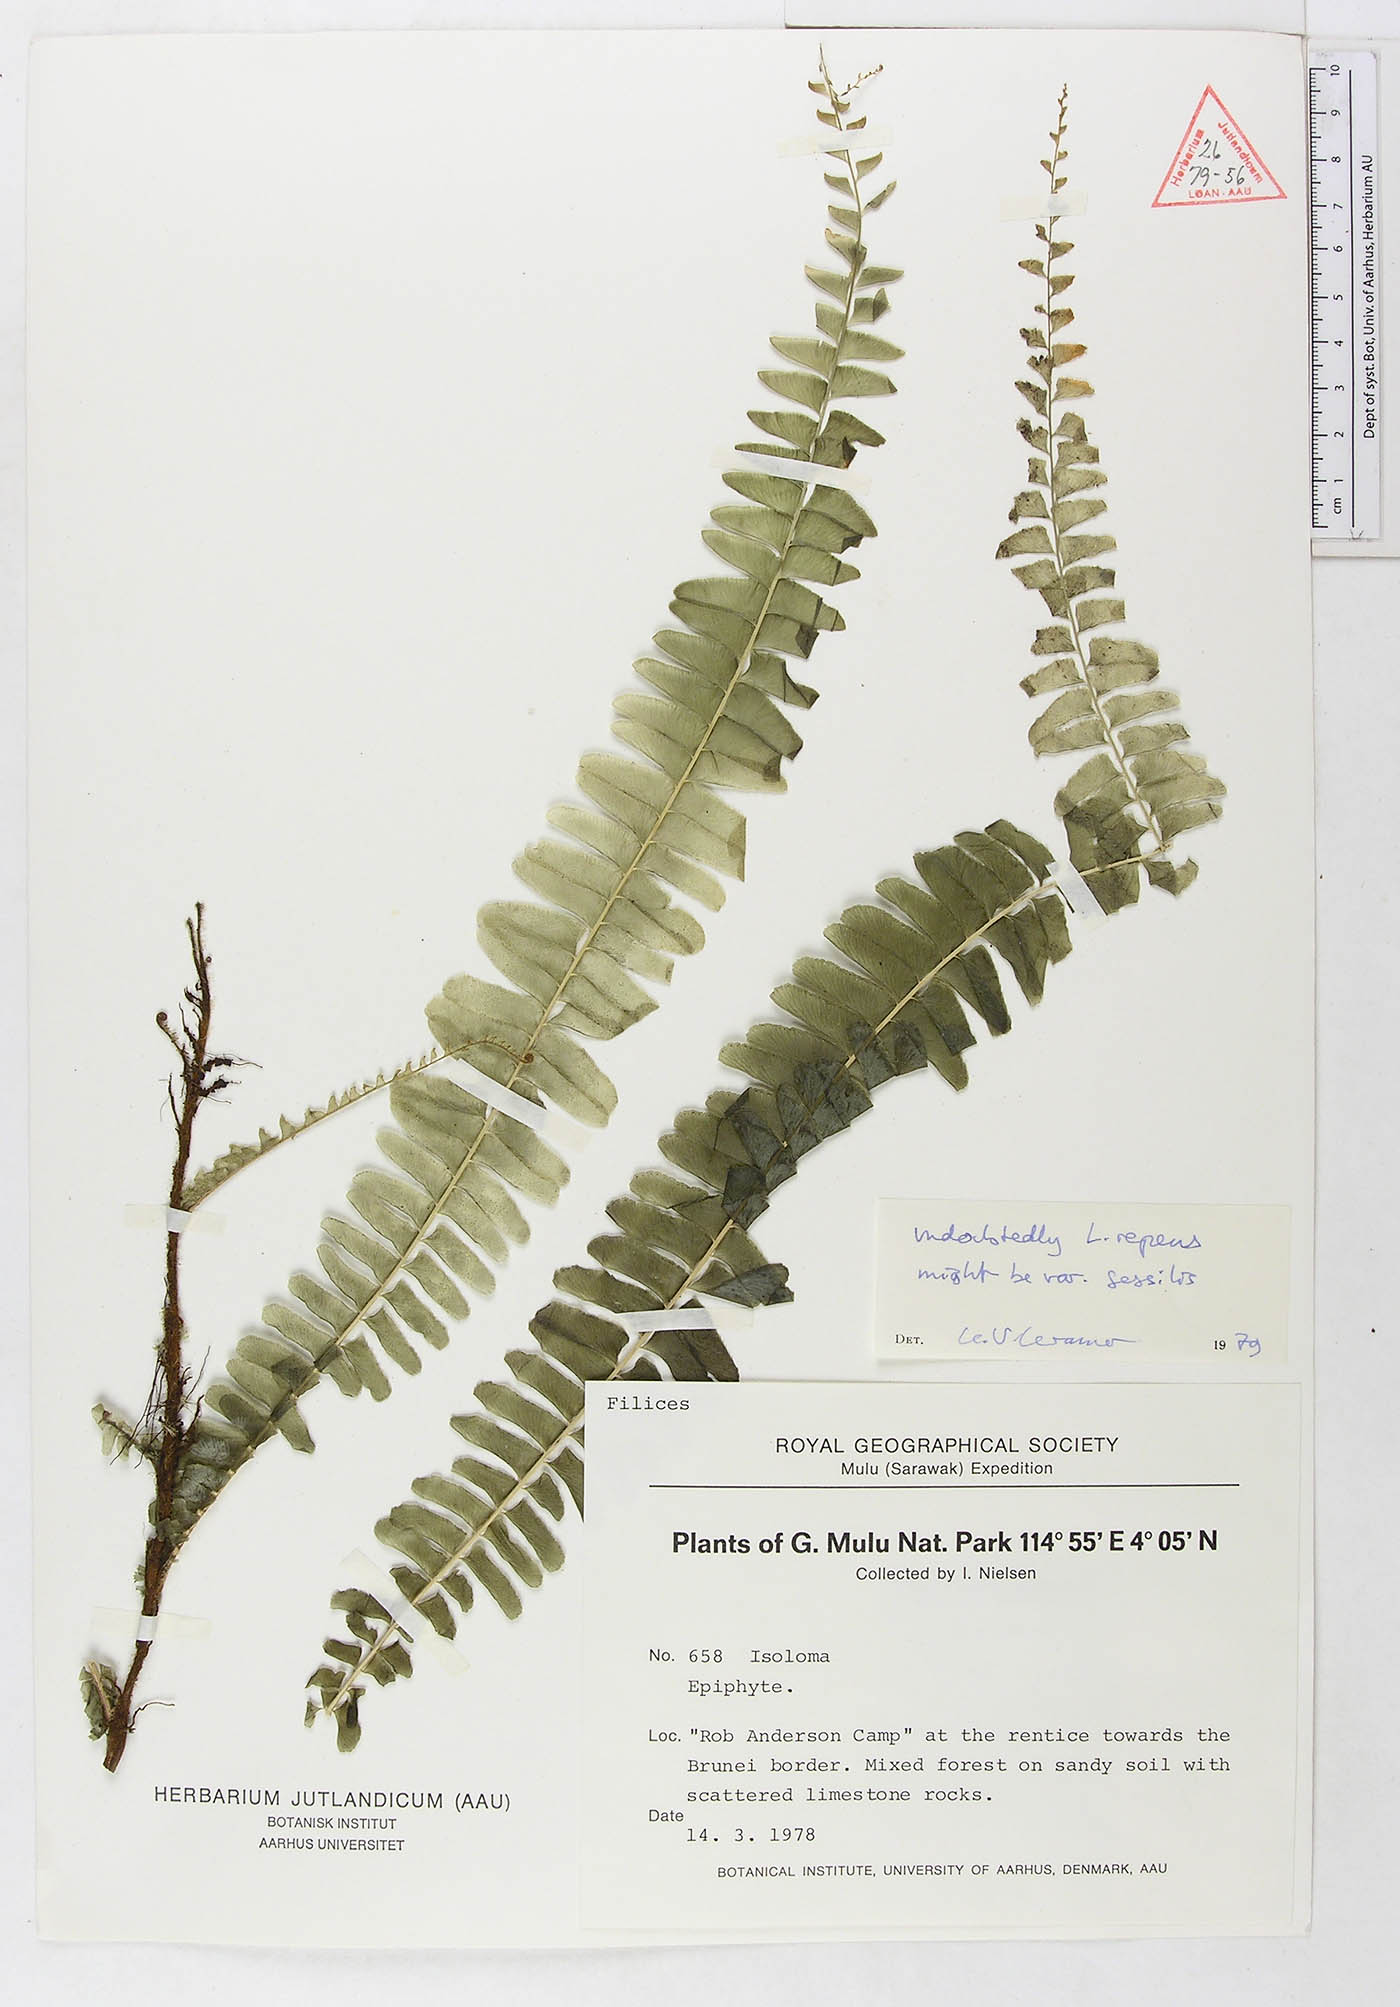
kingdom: Plantae
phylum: Tracheophyta
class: Polypodiopsida
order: Polypodiales
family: Lindsaeaceae
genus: Lindsaea
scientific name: Lindsaea capillacea
